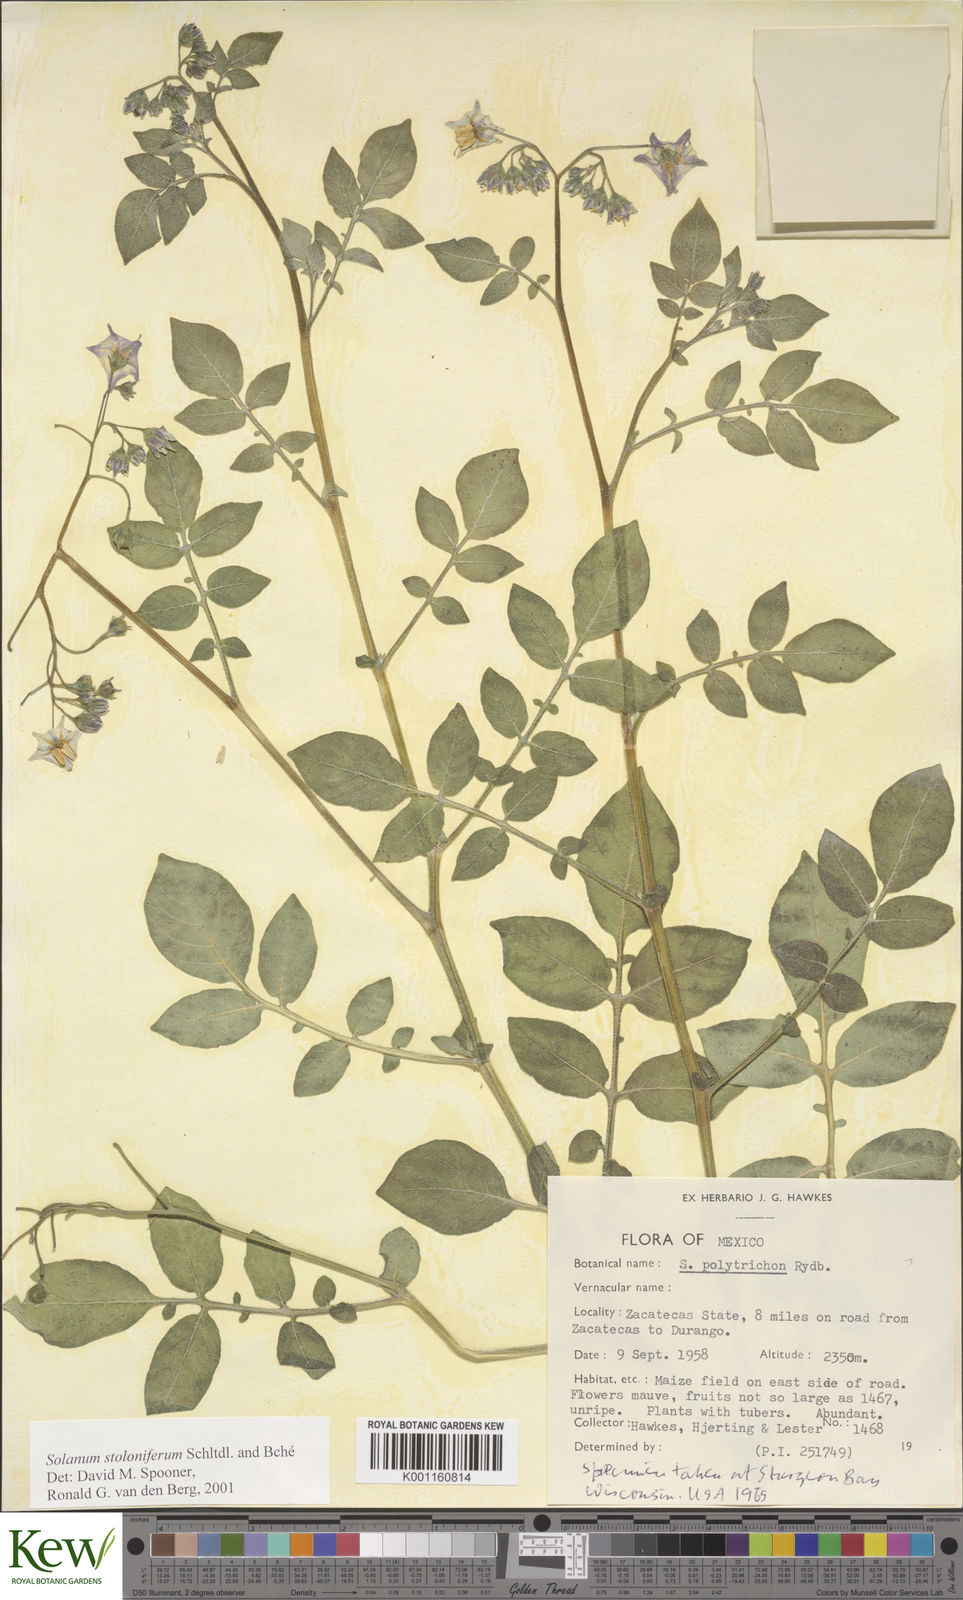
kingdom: Plantae
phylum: Tracheophyta
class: Magnoliopsida
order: Solanales
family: Solanaceae
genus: Solanum
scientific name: Solanum stoloniferum
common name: Fendler's nighshade
